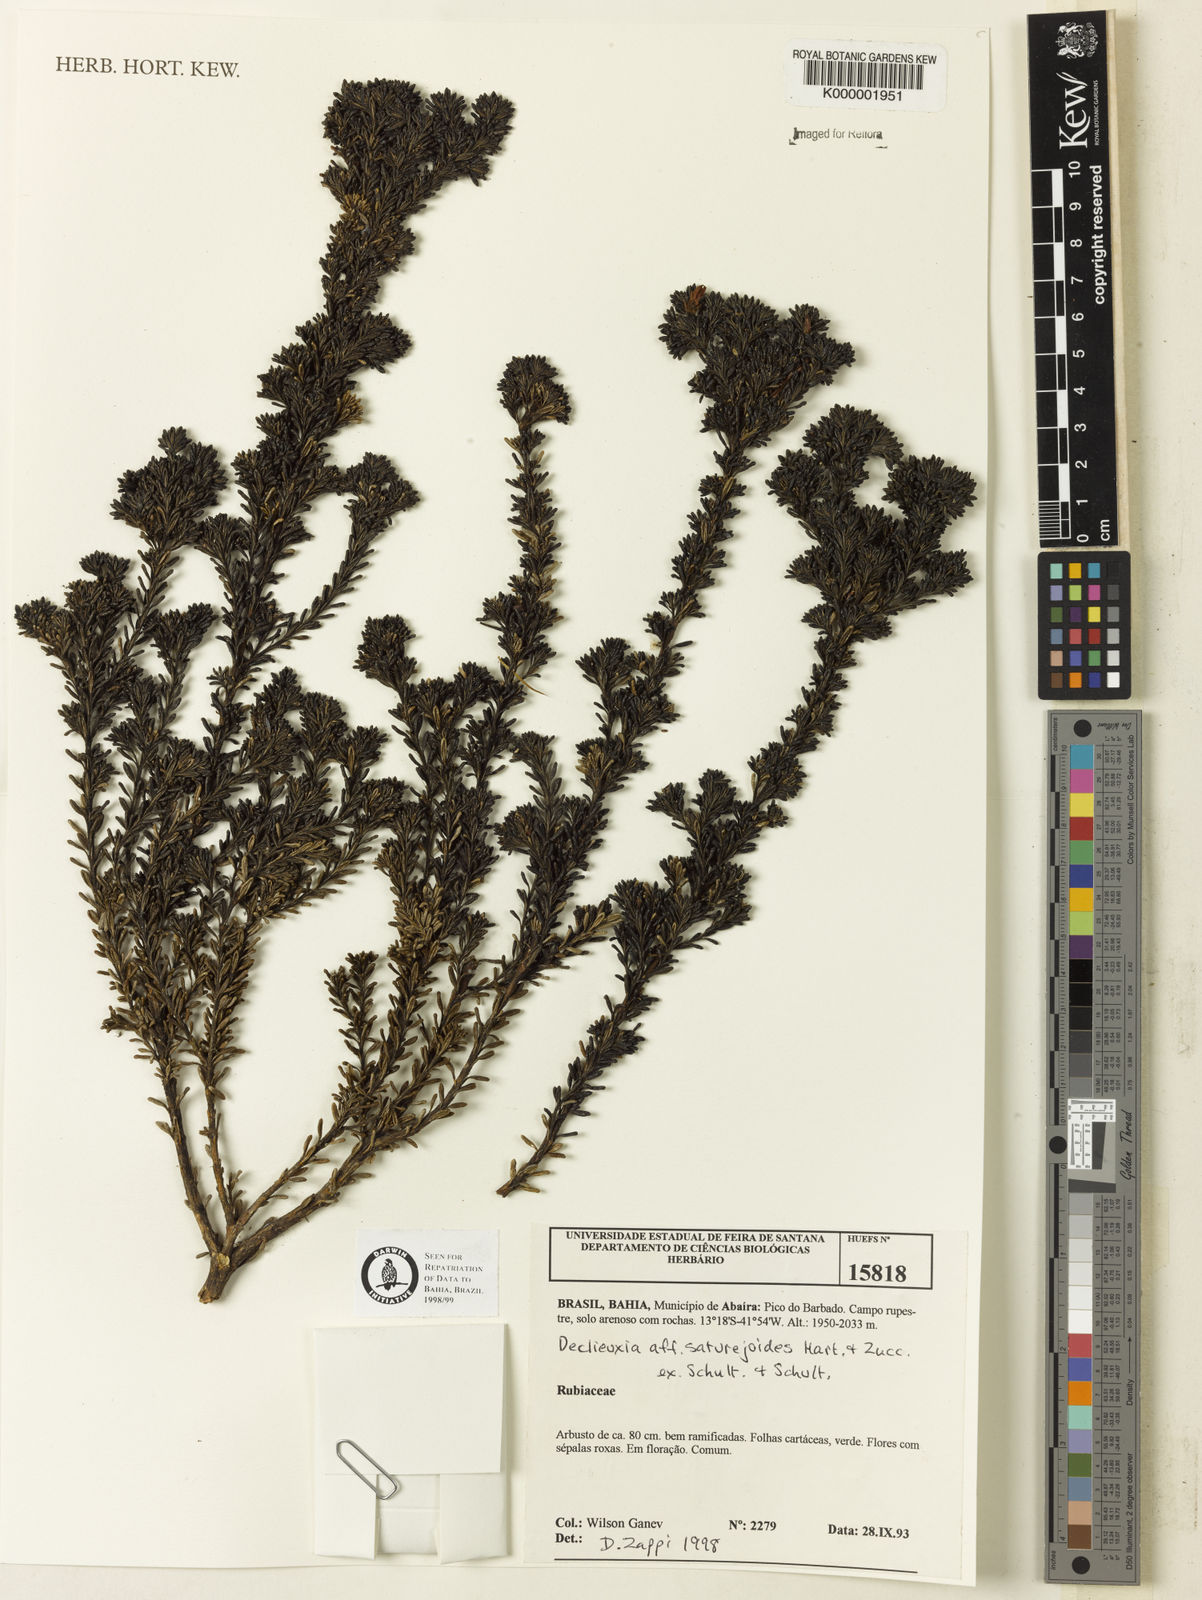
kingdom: Plantae
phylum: Tracheophyta
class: Magnoliopsida
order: Gentianales
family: Rubiaceae
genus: Declieuxia
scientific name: Declieuxia
